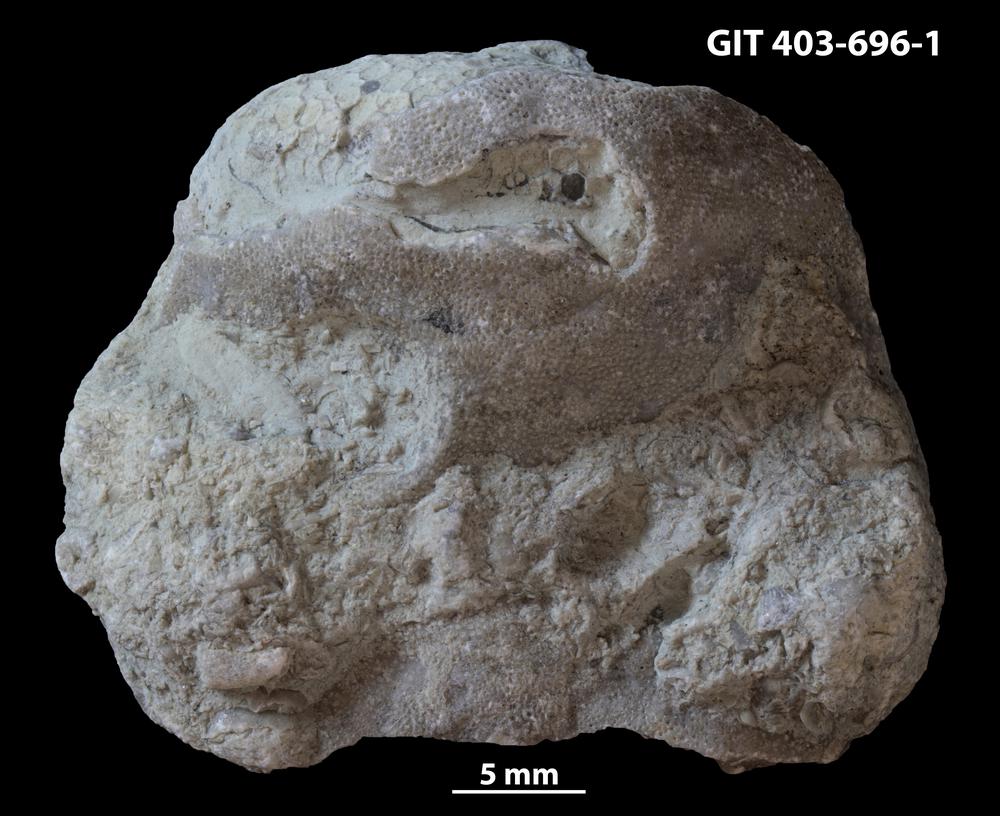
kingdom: Animalia
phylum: Bryozoa
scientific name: Bryozoa
